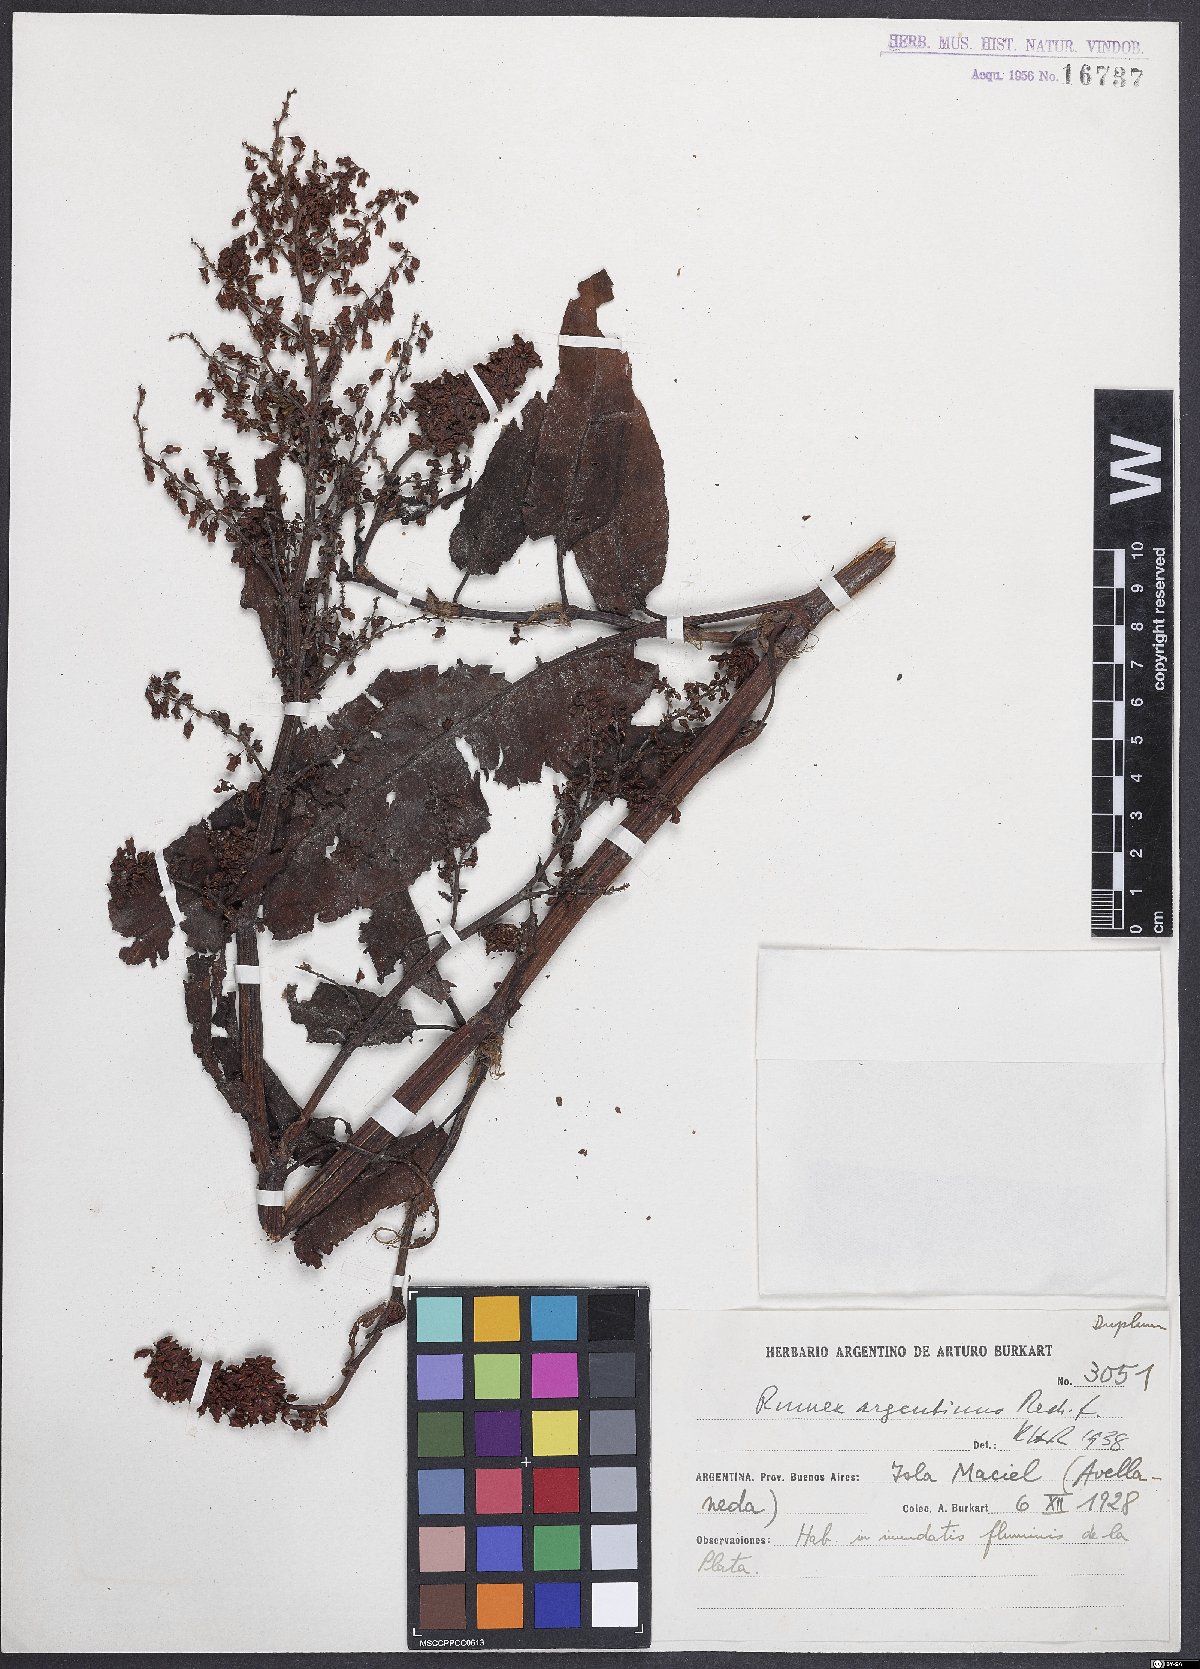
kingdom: Plantae
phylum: Tracheophyta
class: Magnoliopsida
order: Caryophyllales
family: Polygonaceae
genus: Rumex
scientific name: Rumex argentinus
